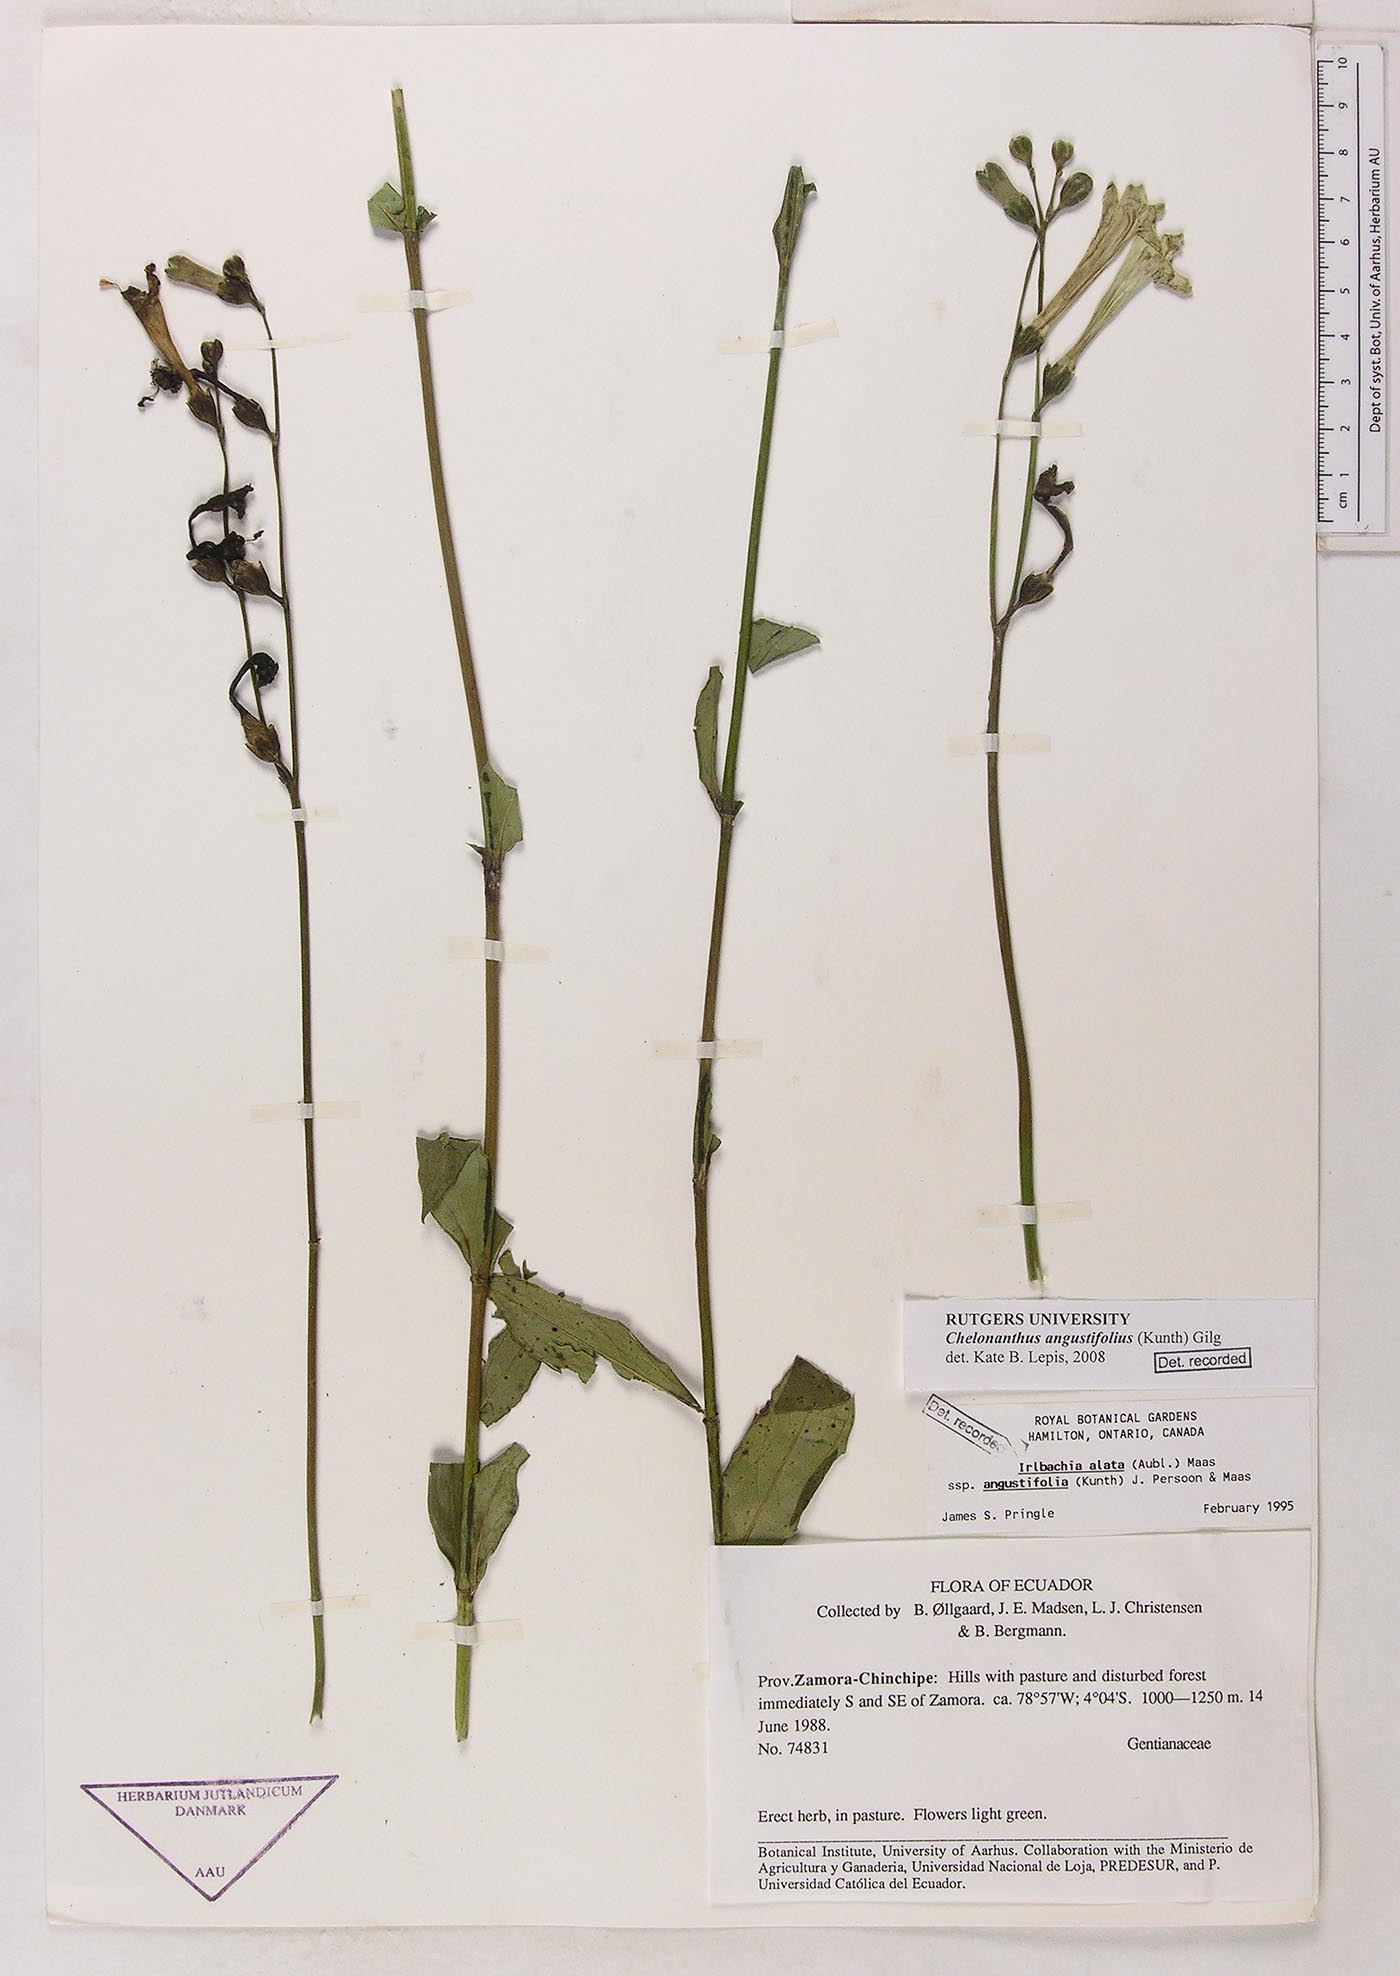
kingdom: Plantae
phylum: Tracheophyta
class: Magnoliopsida
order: Gentianales
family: Gentianaceae
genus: Chelonanthus
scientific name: Chelonanthus angustifolius
